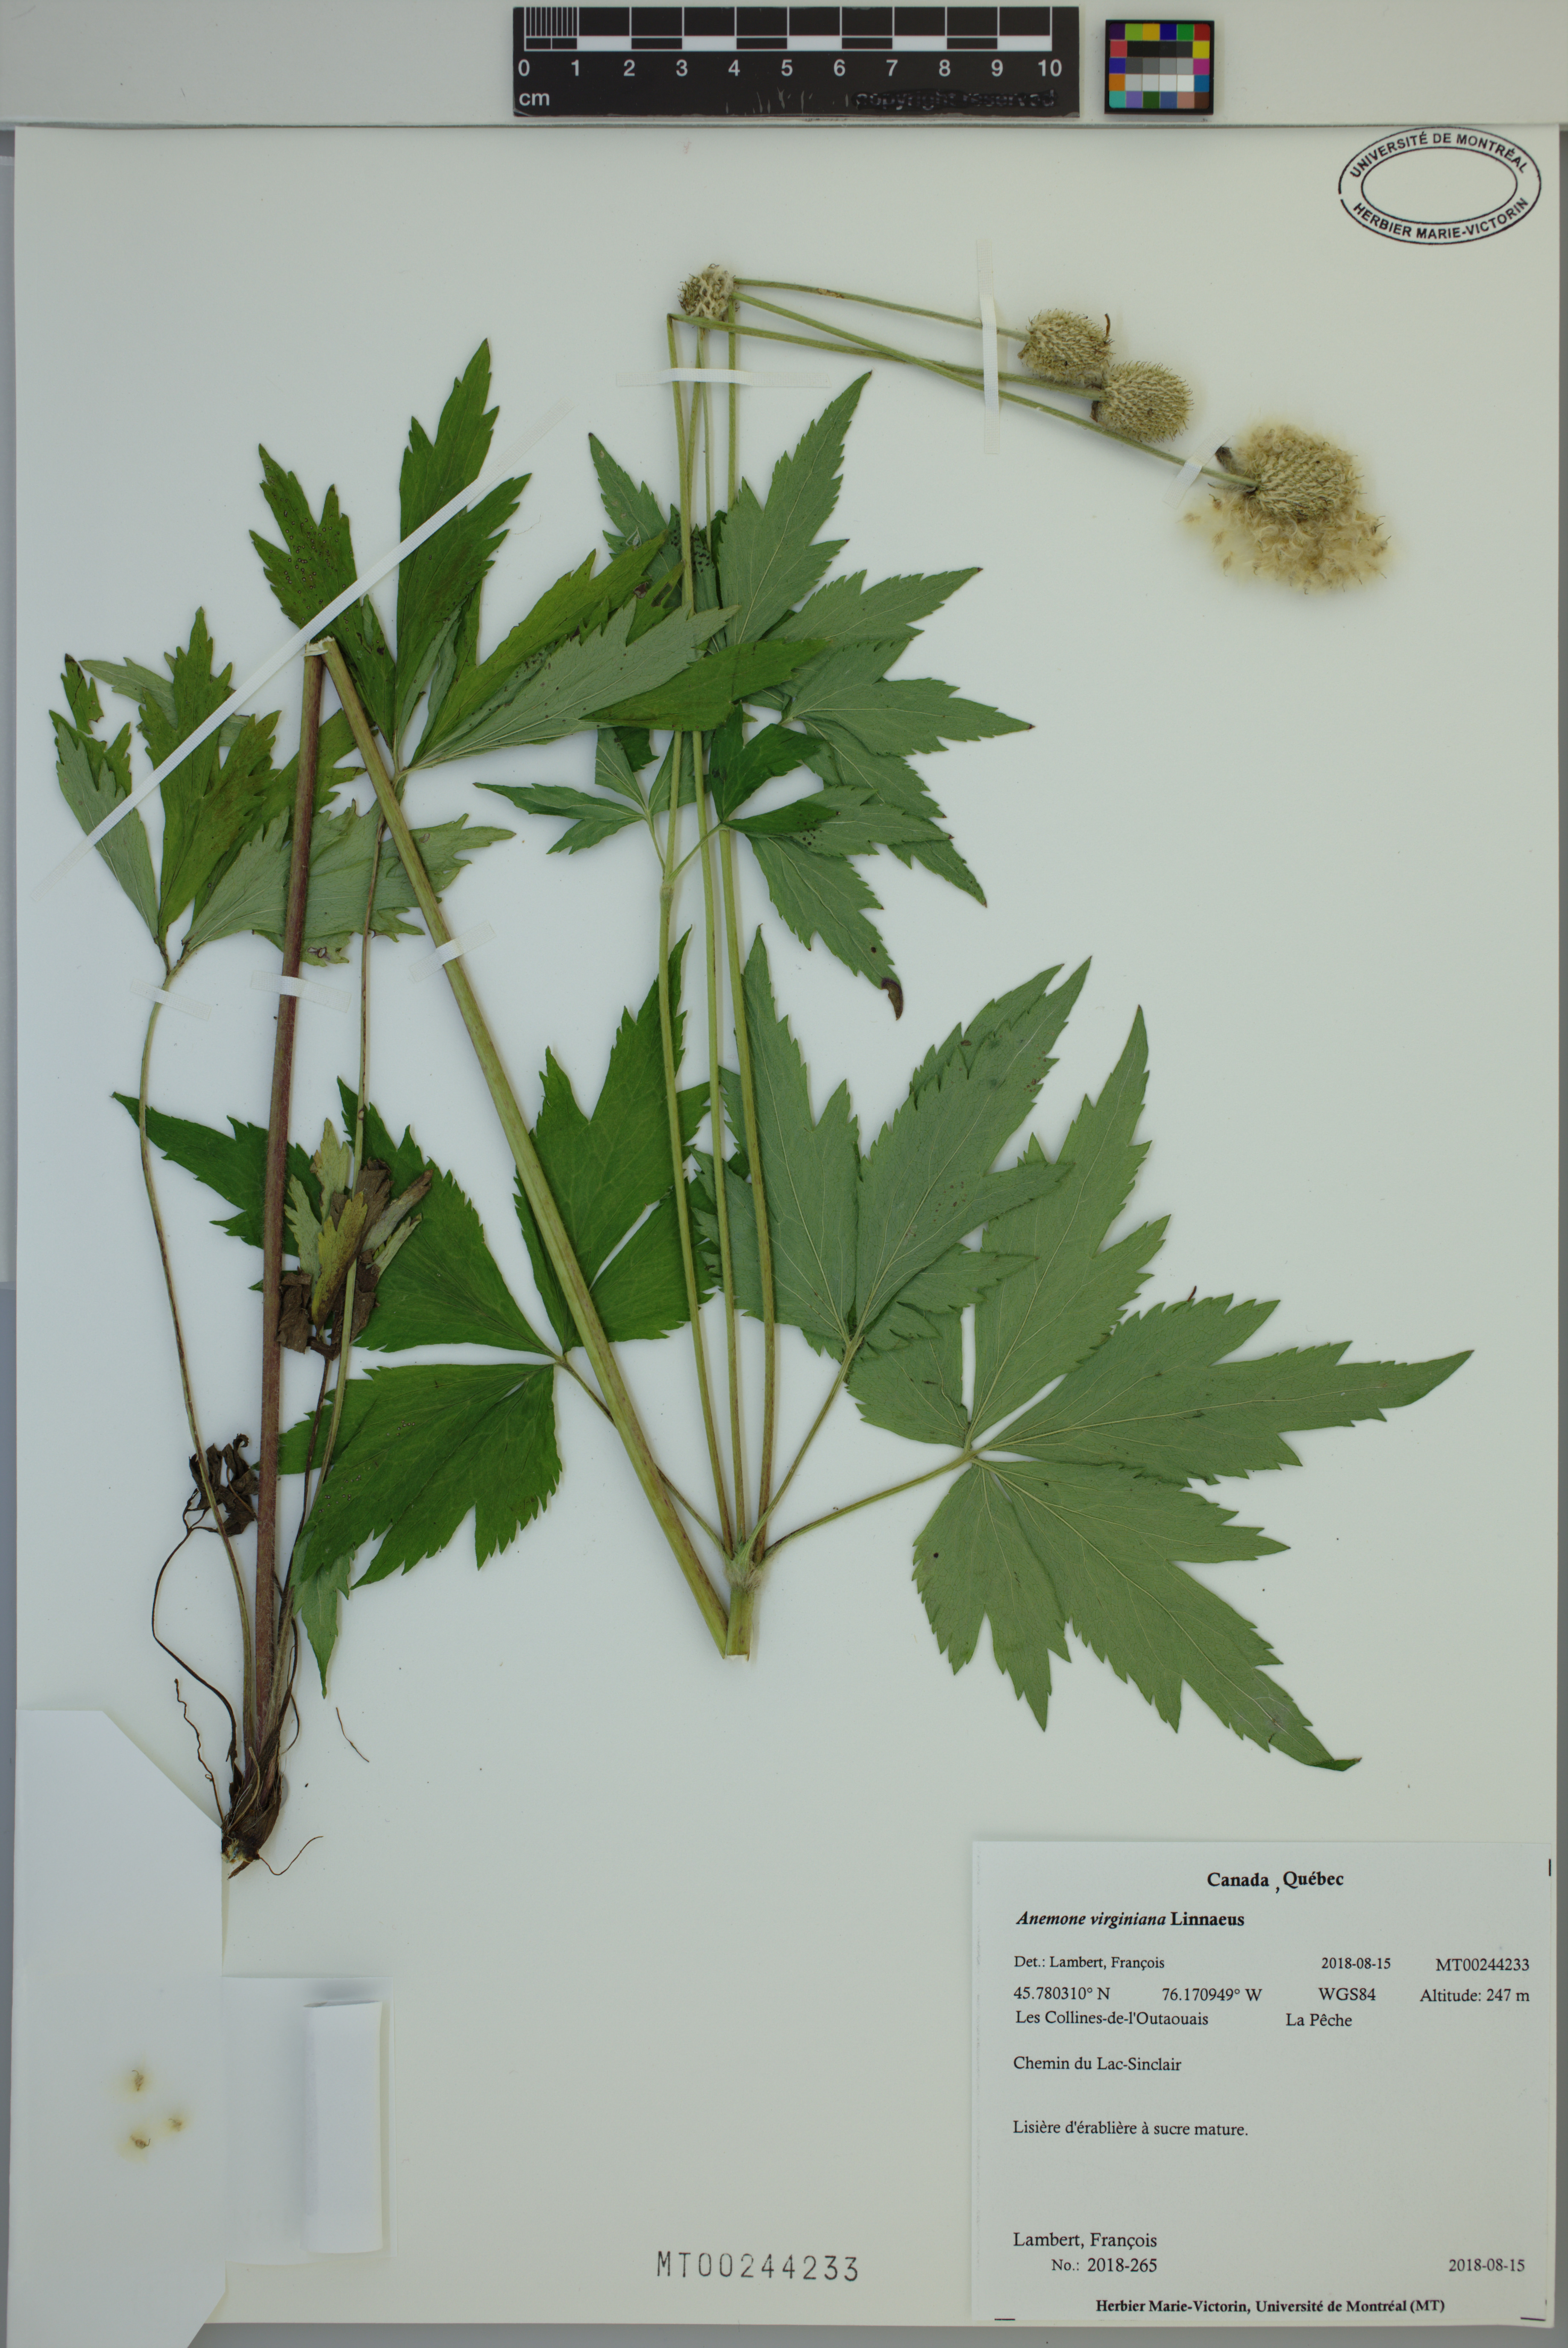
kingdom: Plantae
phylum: Tracheophyta
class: Magnoliopsida
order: Ranunculales
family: Ranunculaceae
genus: Anemone
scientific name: Anemone virginiana
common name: Tall anemone
